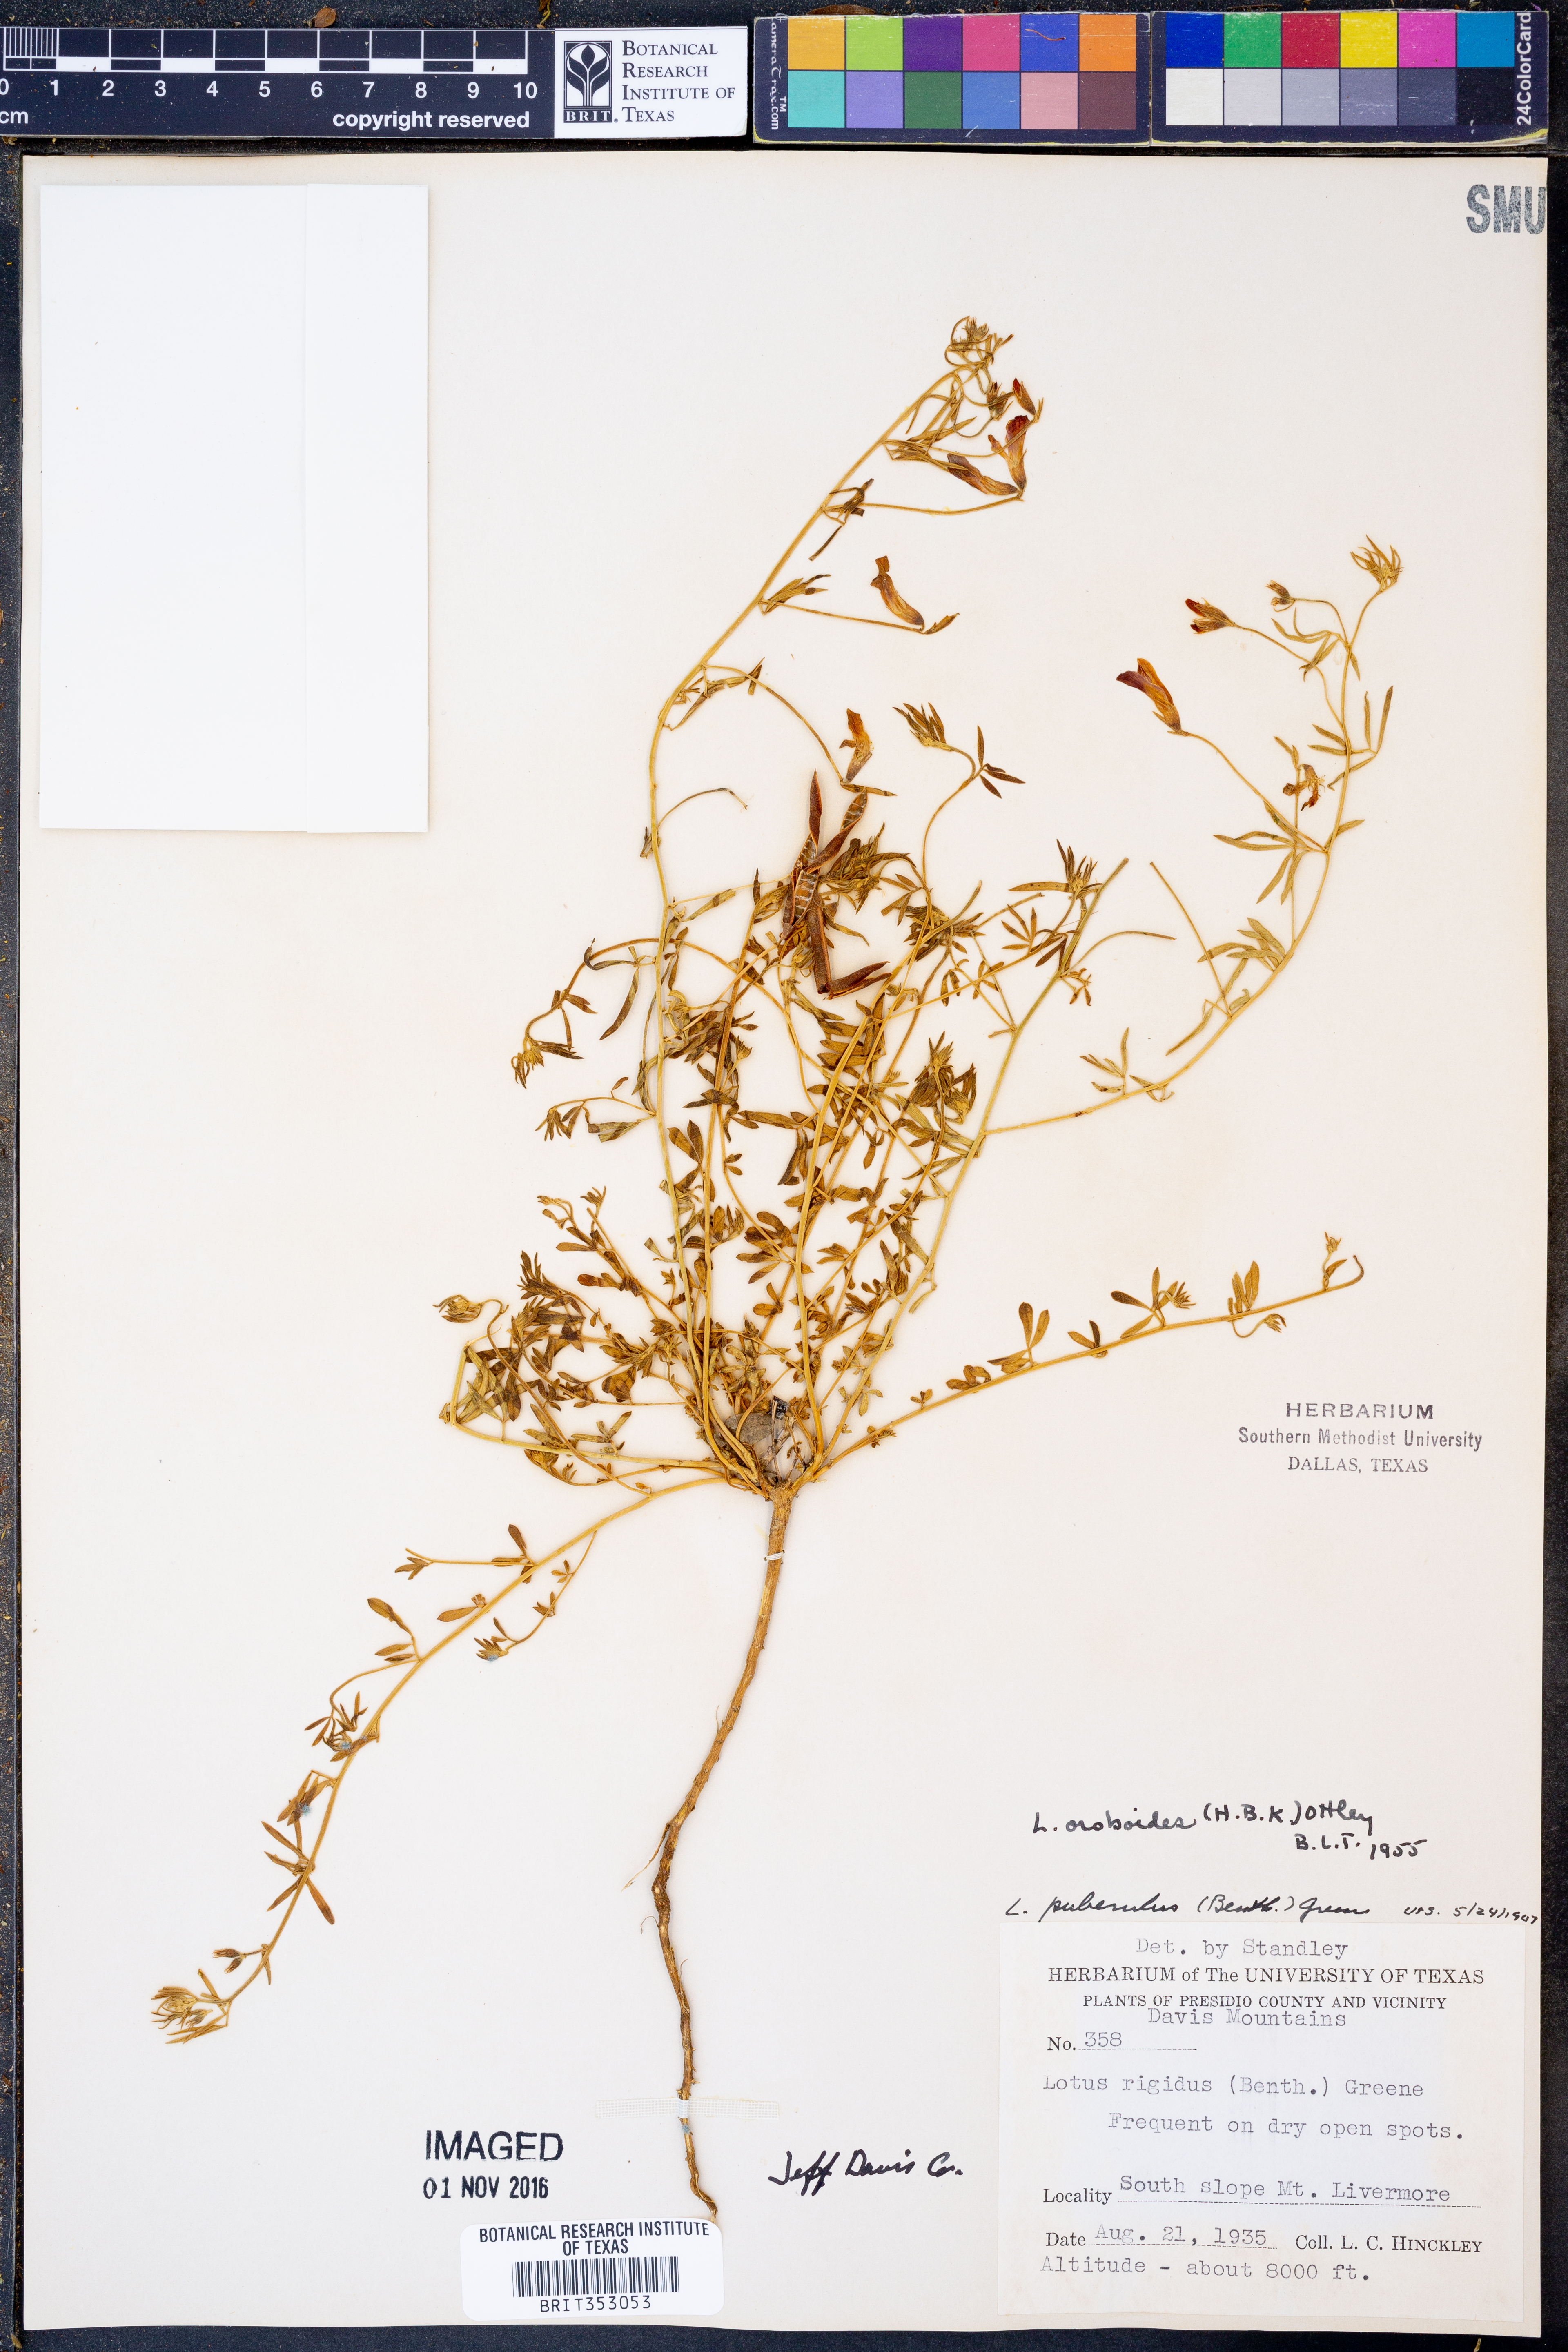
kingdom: Plantae
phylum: Tracheophyta
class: Magnoliopsida
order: Fabales
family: Fabaceae
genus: Acmispon
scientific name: Acmispon oroboides
